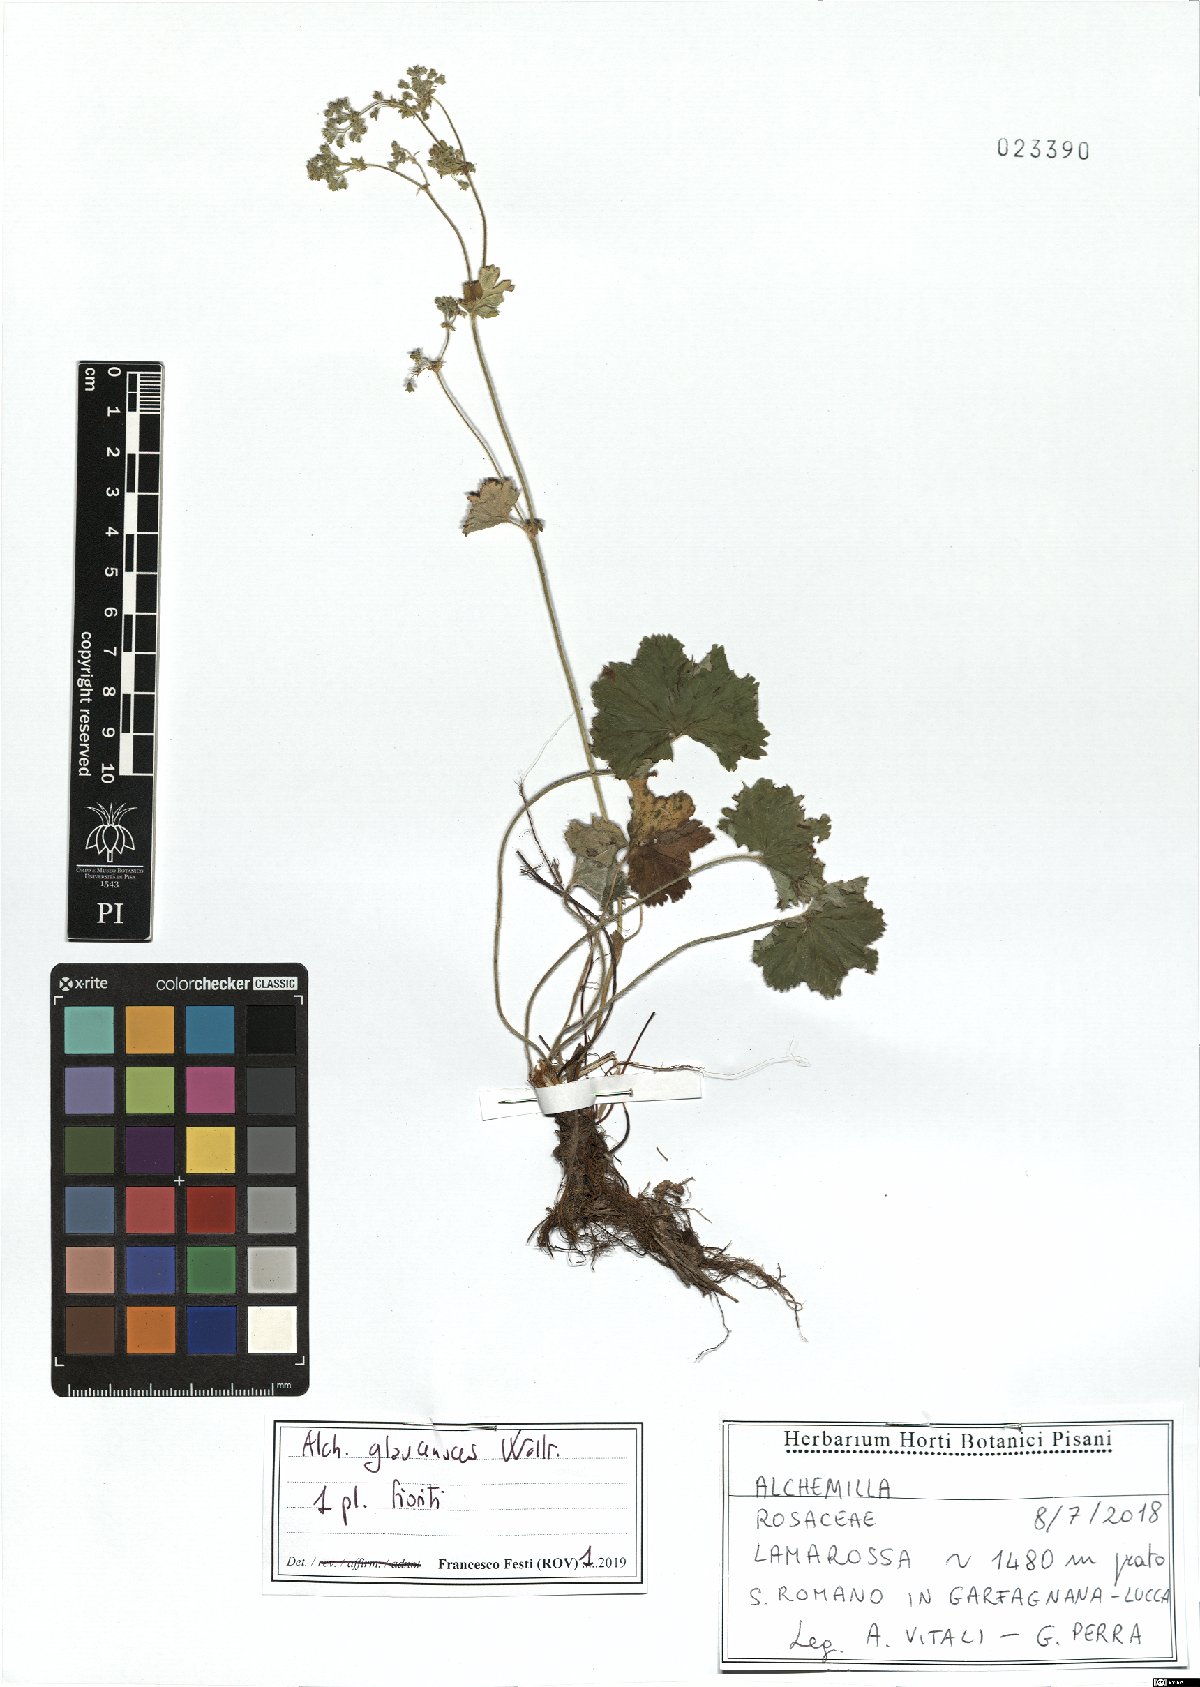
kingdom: Plantae
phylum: Tracheophyta
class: Magnoliopsida
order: Rosales
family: Rosaceae
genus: Alchemilla
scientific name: Alchemilla glaucescens
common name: Silky lady's mantle
